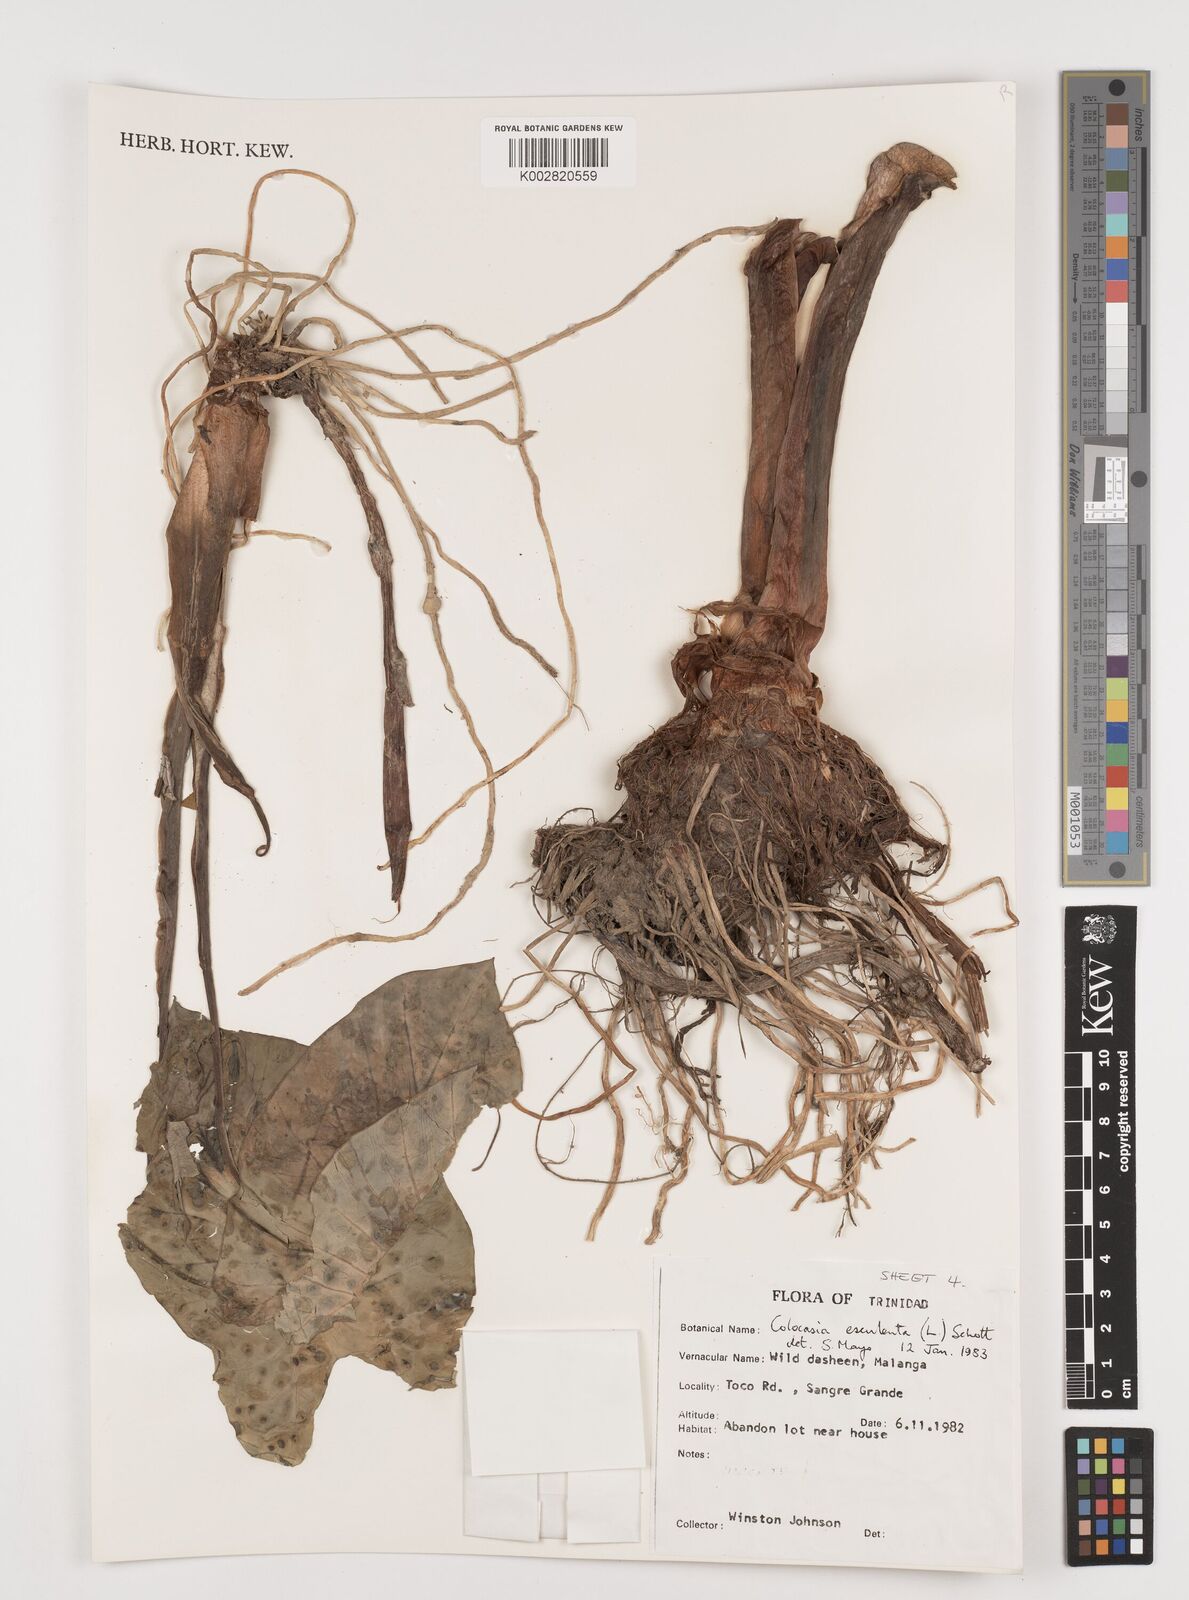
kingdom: Plantae
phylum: Tracheophyta
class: Liliopsida
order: Alismatales
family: Araceae
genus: Colocasia
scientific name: Colocasia esculenta
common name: Taro
